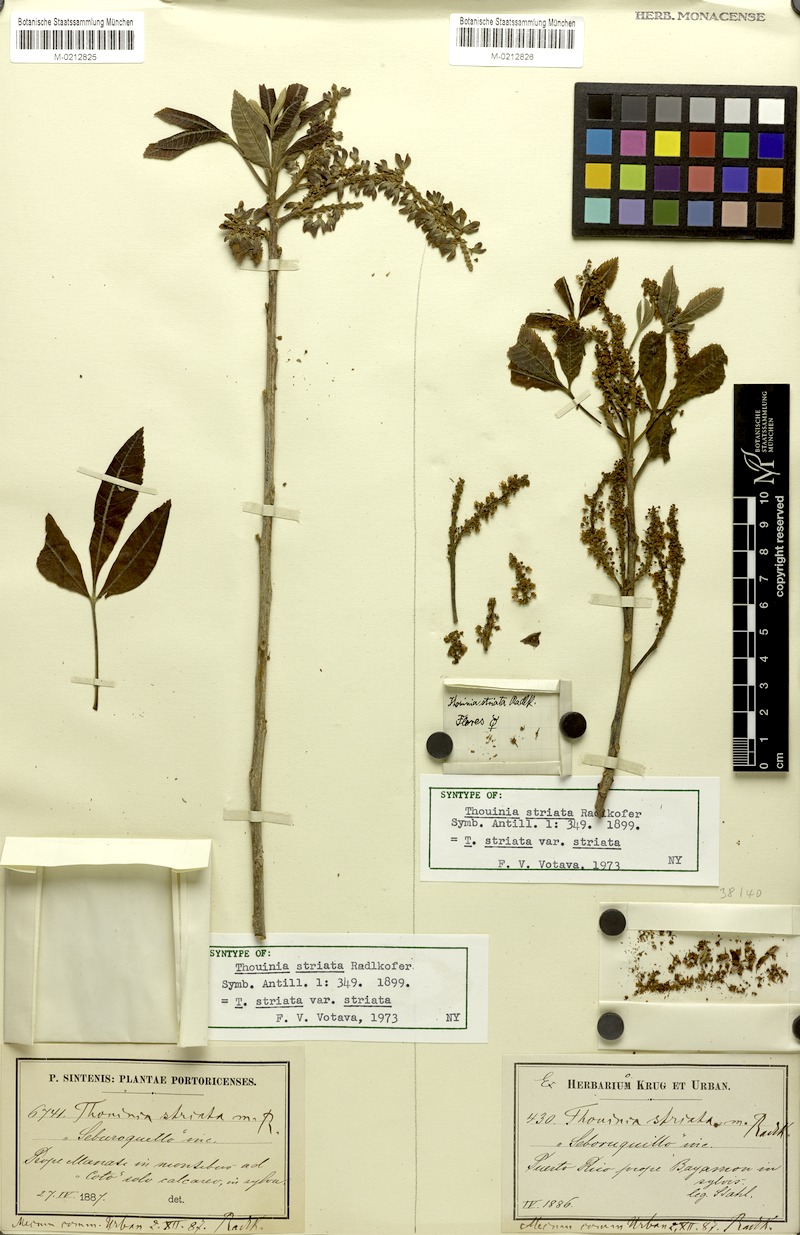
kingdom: Plantae
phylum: Tracheophyta
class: Magnoliopsida
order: Sapindales
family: Sapindaceae
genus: Thouinia
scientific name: Thouinia striata
